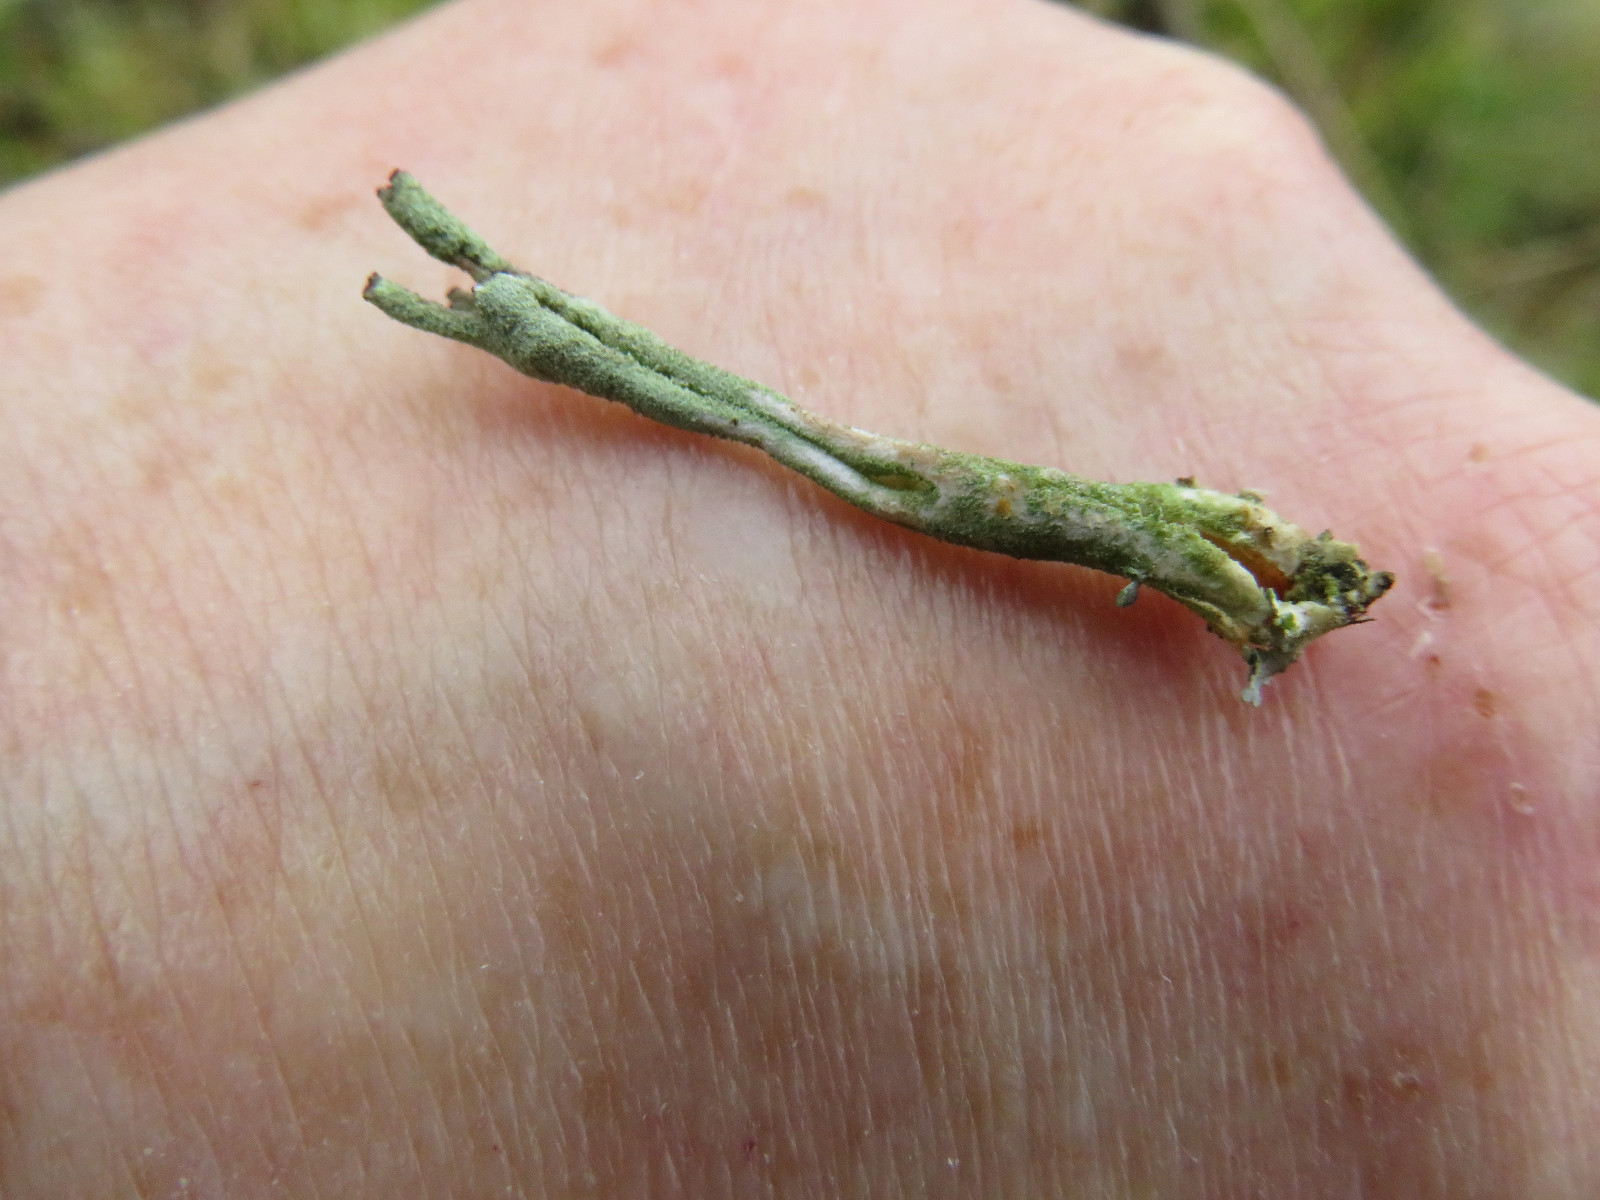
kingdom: Fungi
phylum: Ascomycota
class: Lecanoromycetes
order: Lecanorales
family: Cladoniaceae
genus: Cladonia
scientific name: Cladonia ochrochlora
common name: stød-bægerlav
